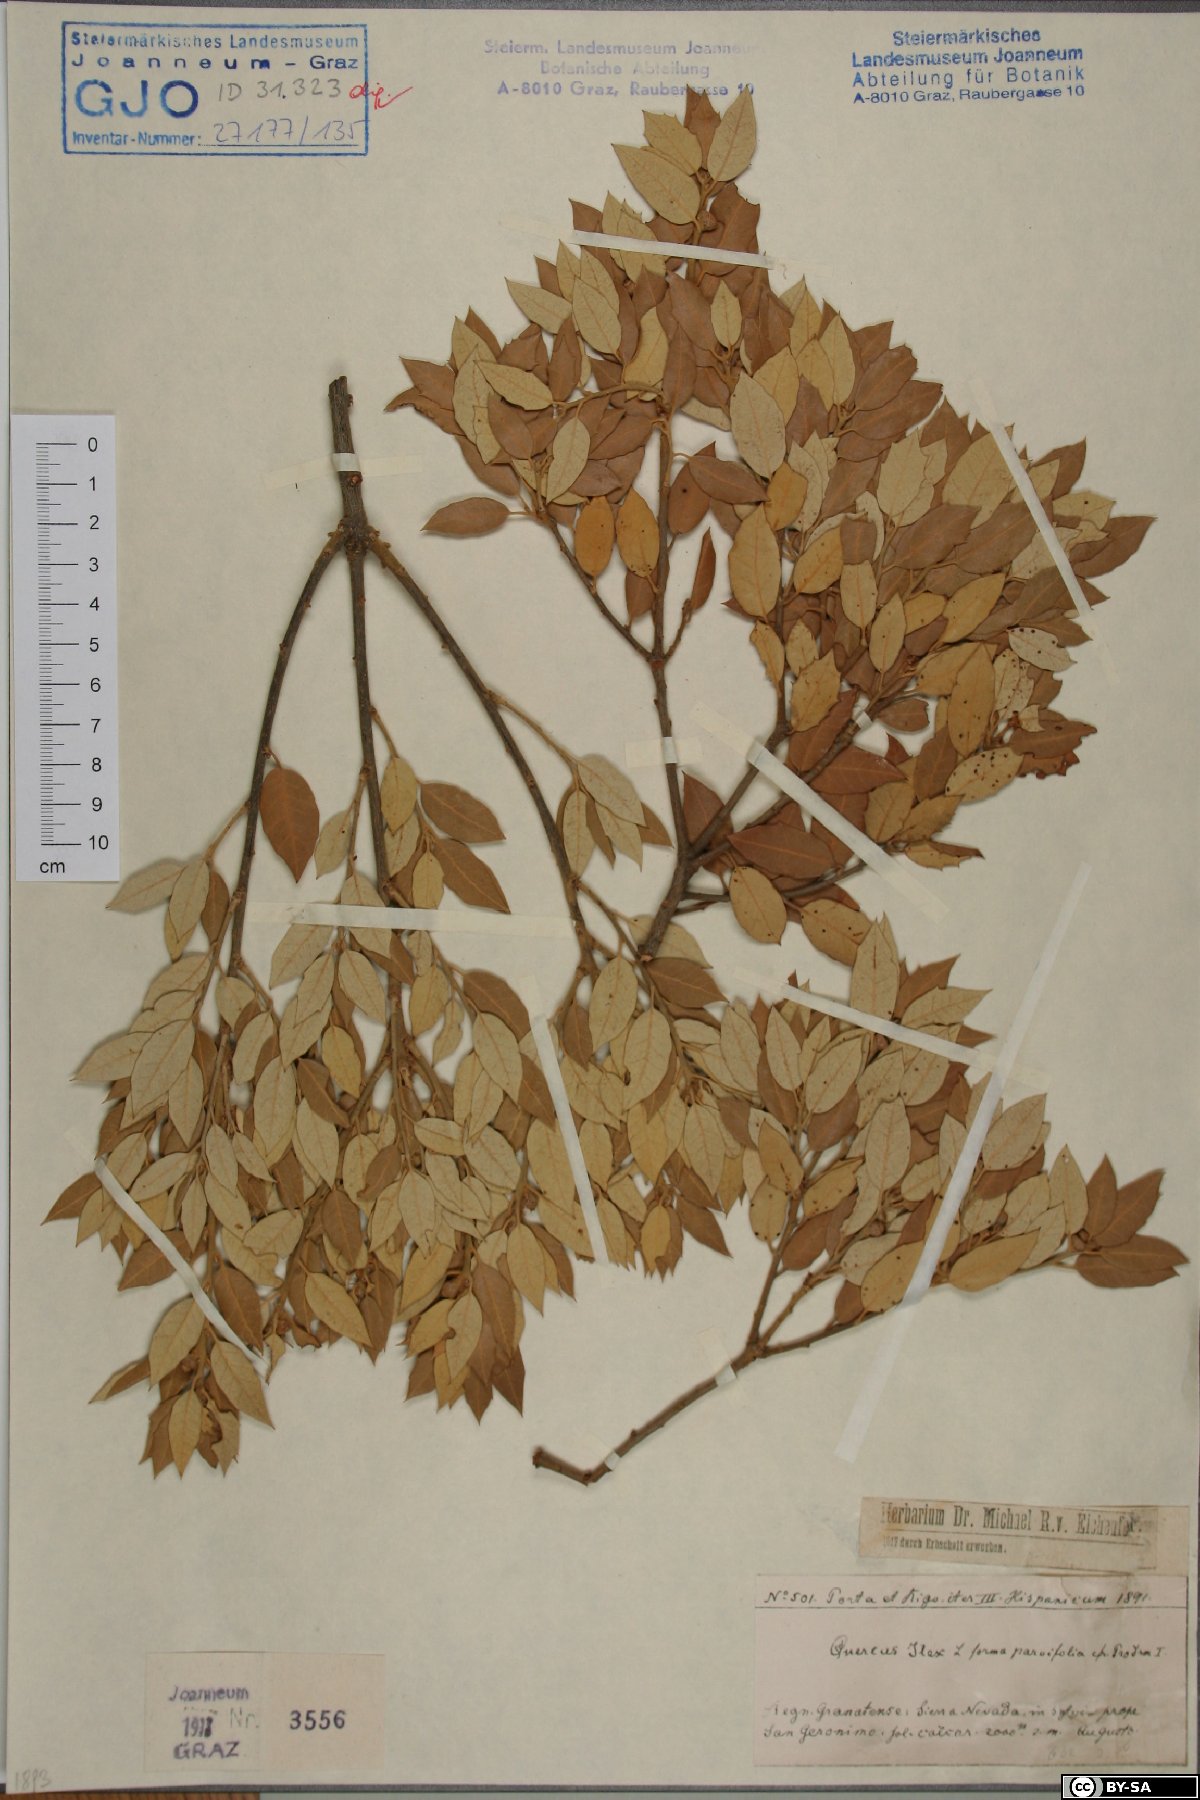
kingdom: Plantae
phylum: Tracheophyta
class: Magnoliopsida
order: Fagales
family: Fagaceae
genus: Quercus
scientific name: Quercus ilex
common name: Evergreen oak
